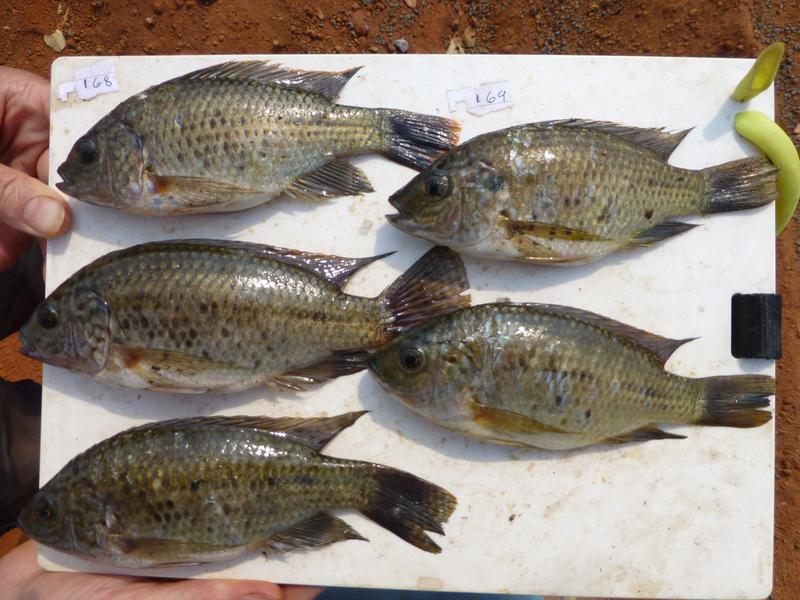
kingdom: Animalia
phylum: Chordata
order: Perciformes
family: Cichlidae
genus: Oreochromis
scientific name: Oreochromis shiranus
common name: Chilwa tilapia
